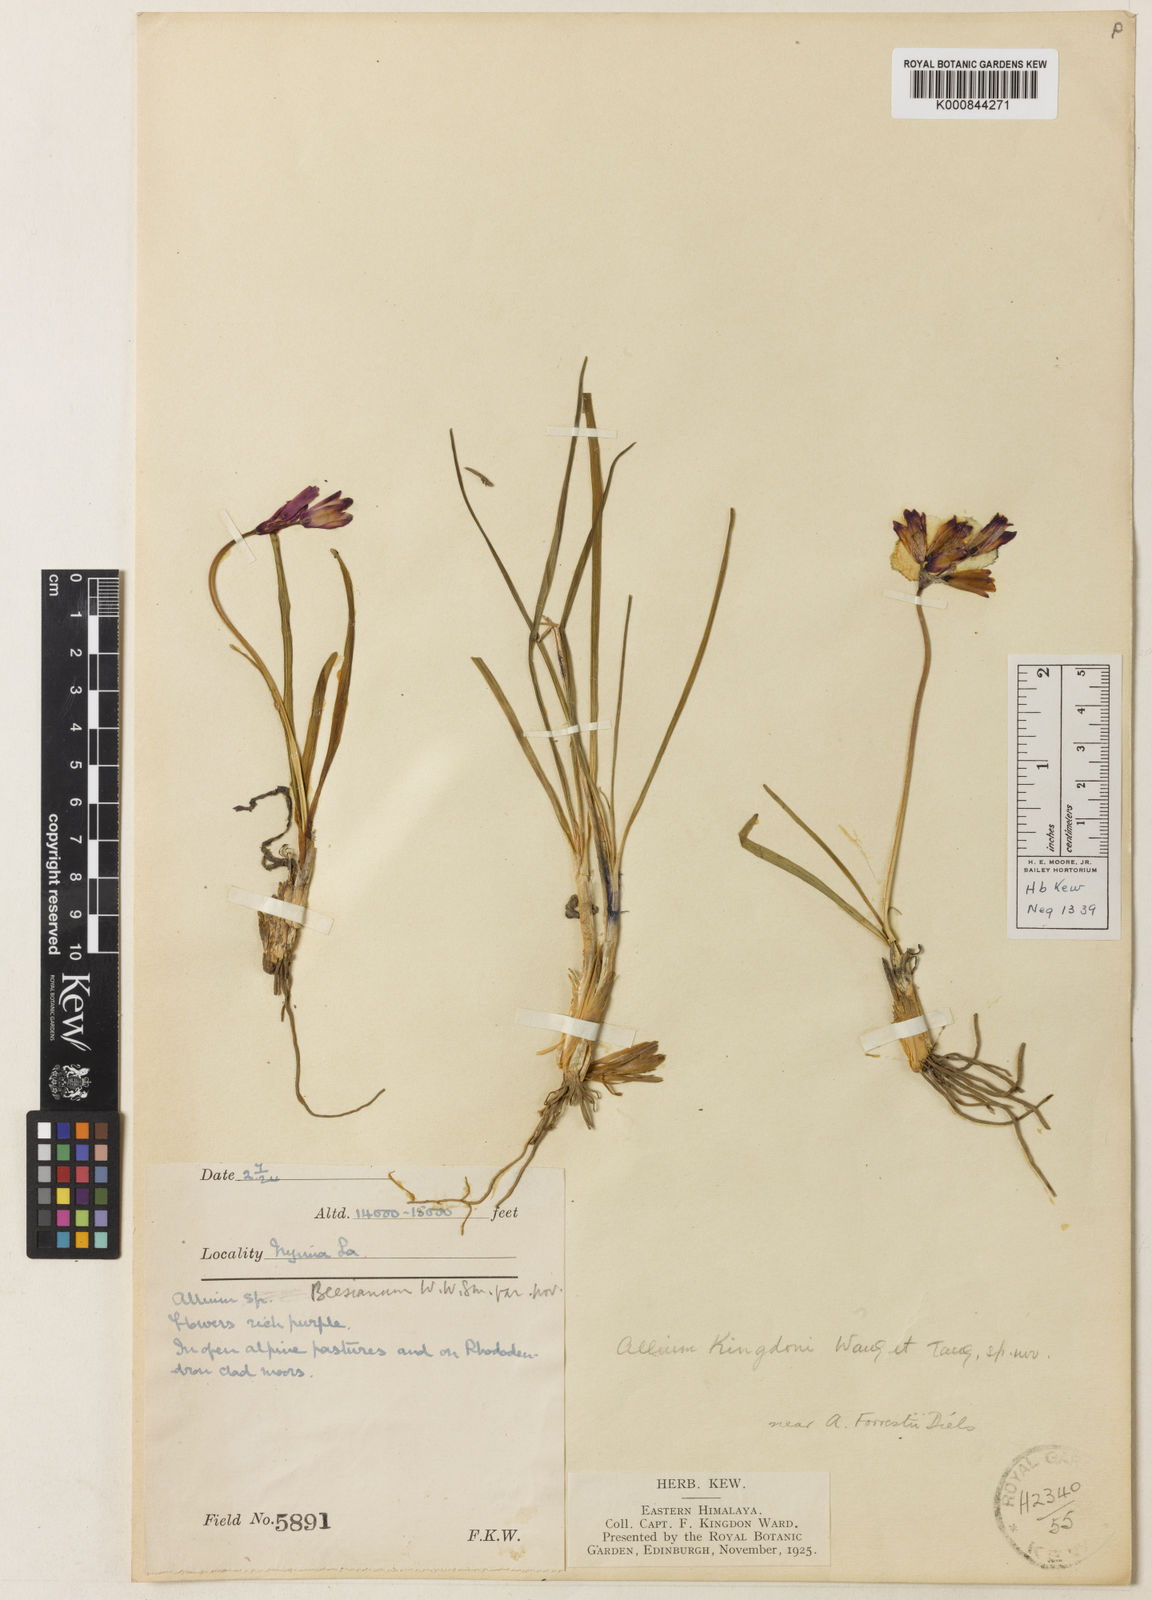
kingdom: Plantae
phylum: Tracheophyta
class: Liliopsida
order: Asparagales
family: Amaryllidaceae
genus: Allium
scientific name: Allium kingdonii
